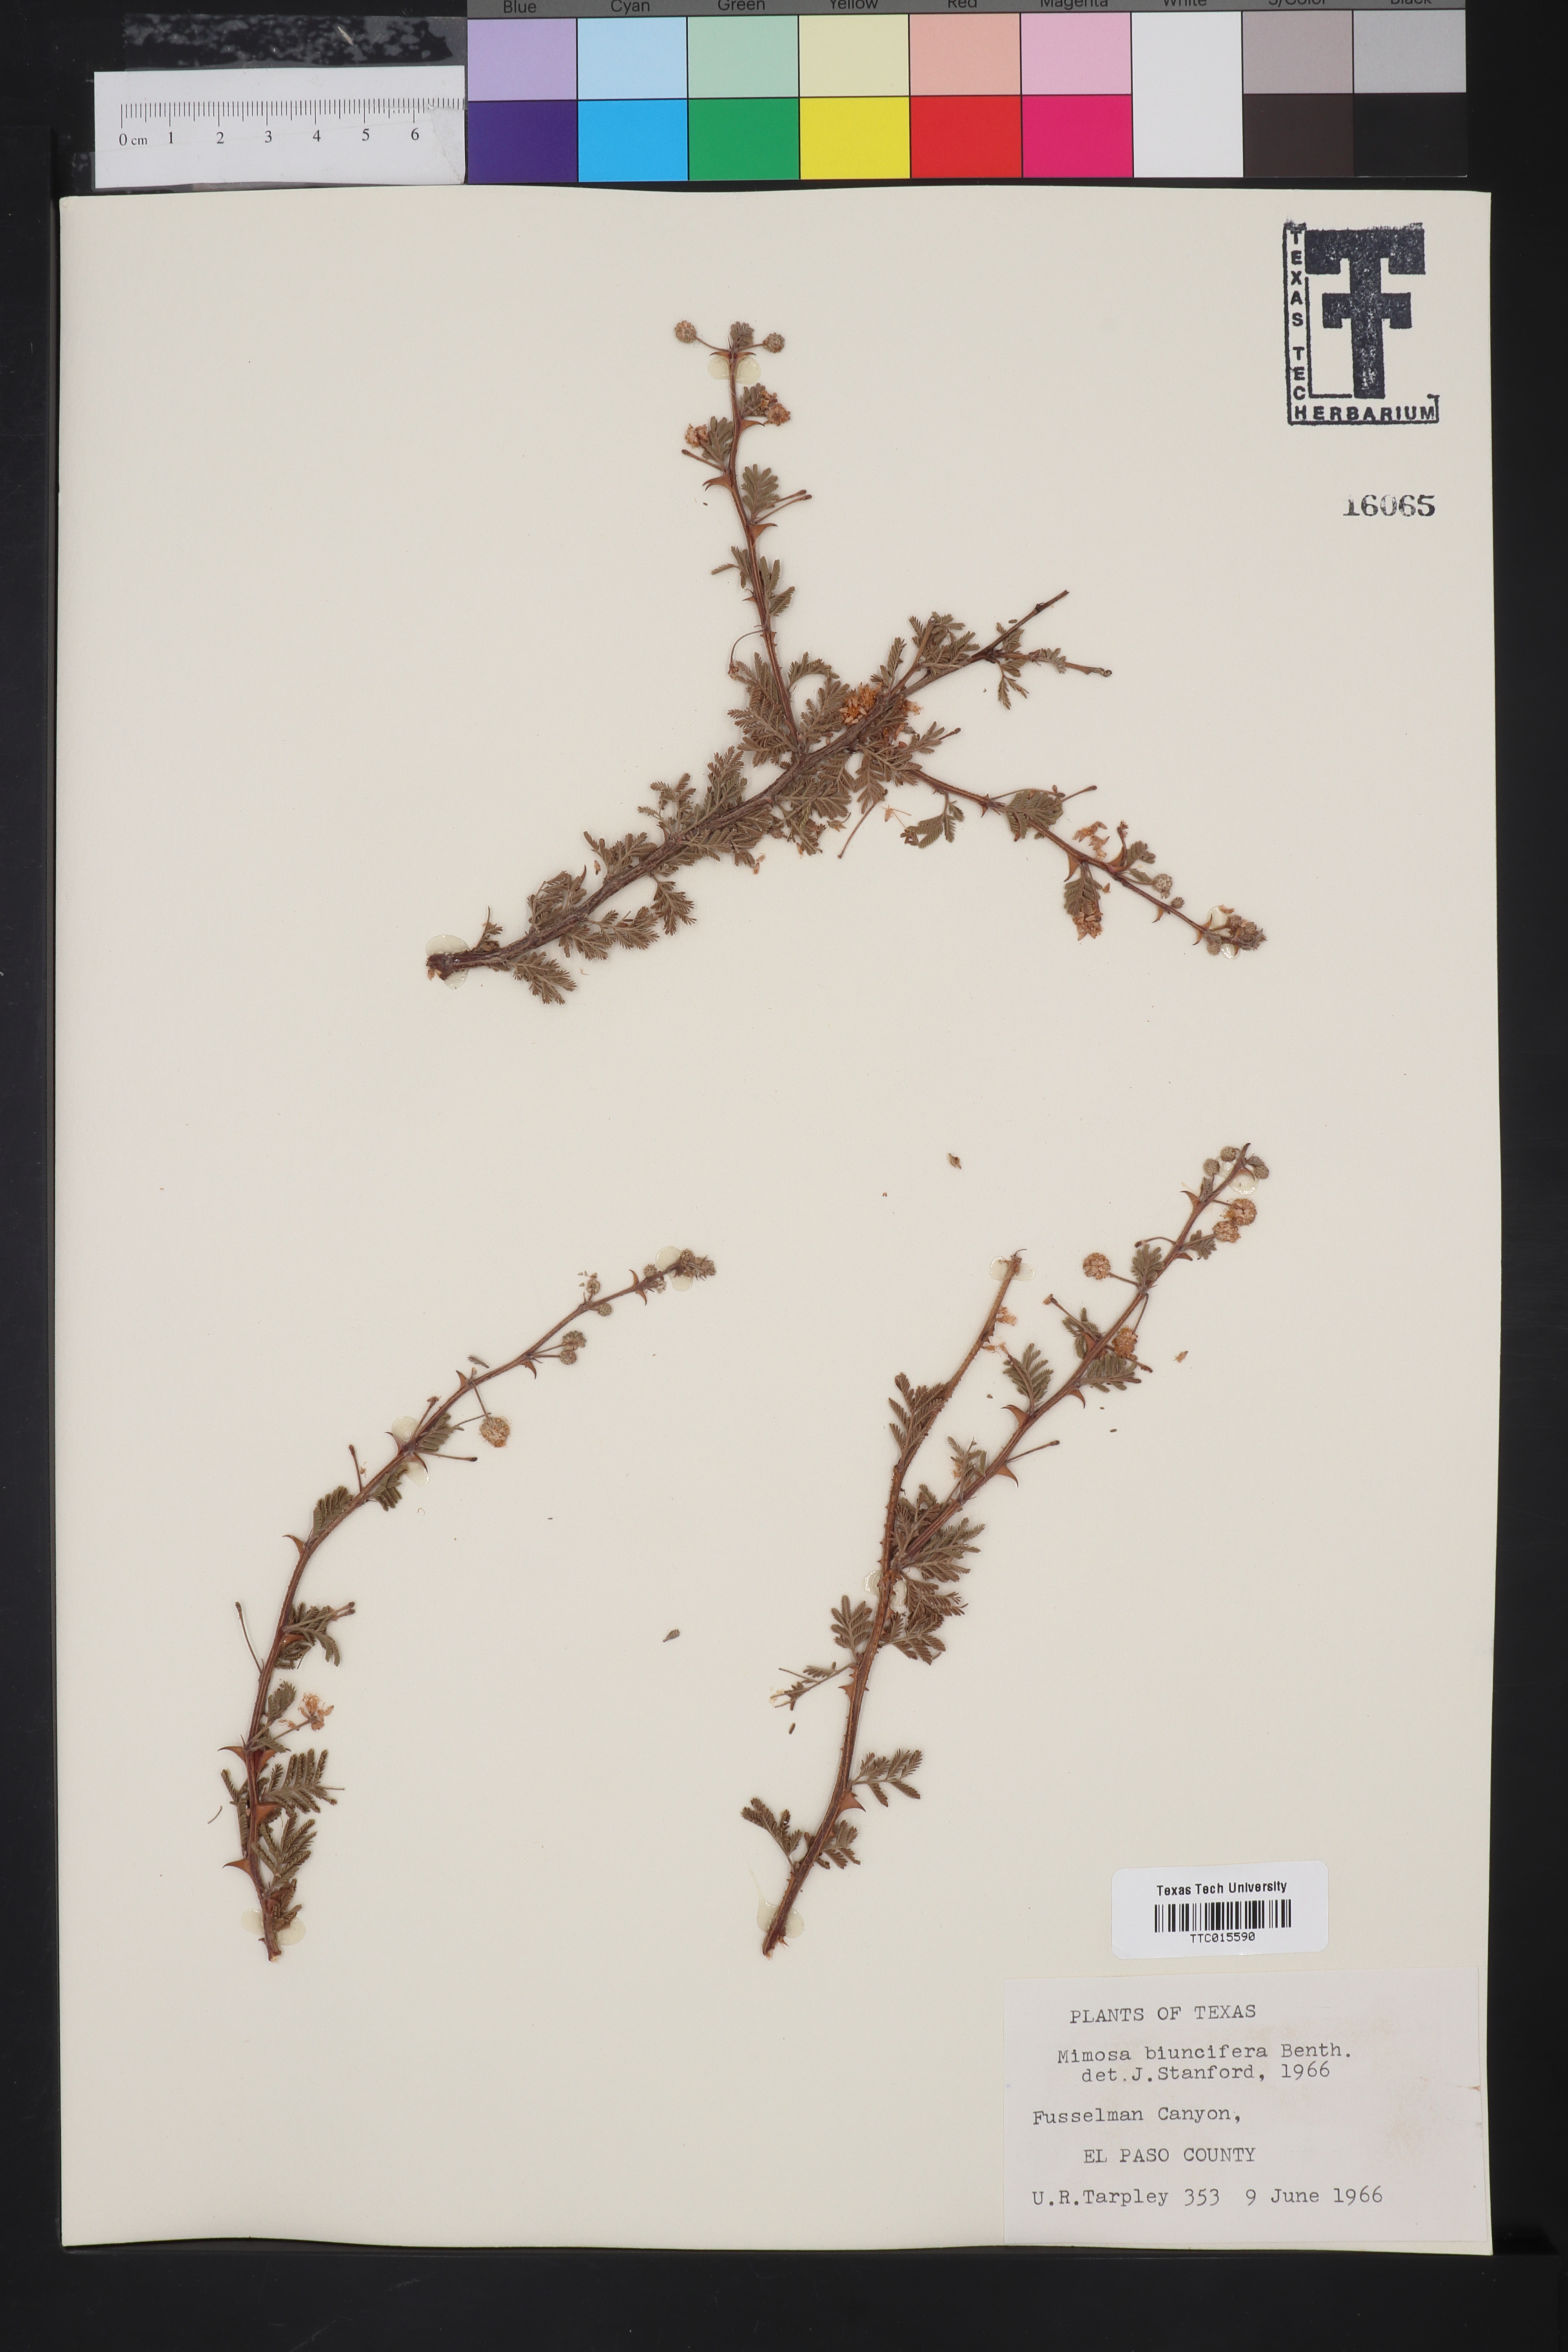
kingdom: Plantae
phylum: Tracheophyta
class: Magnoliopsida
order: Fabales
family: Fabaceae
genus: Mimosa
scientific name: Mimosa biuncifera
